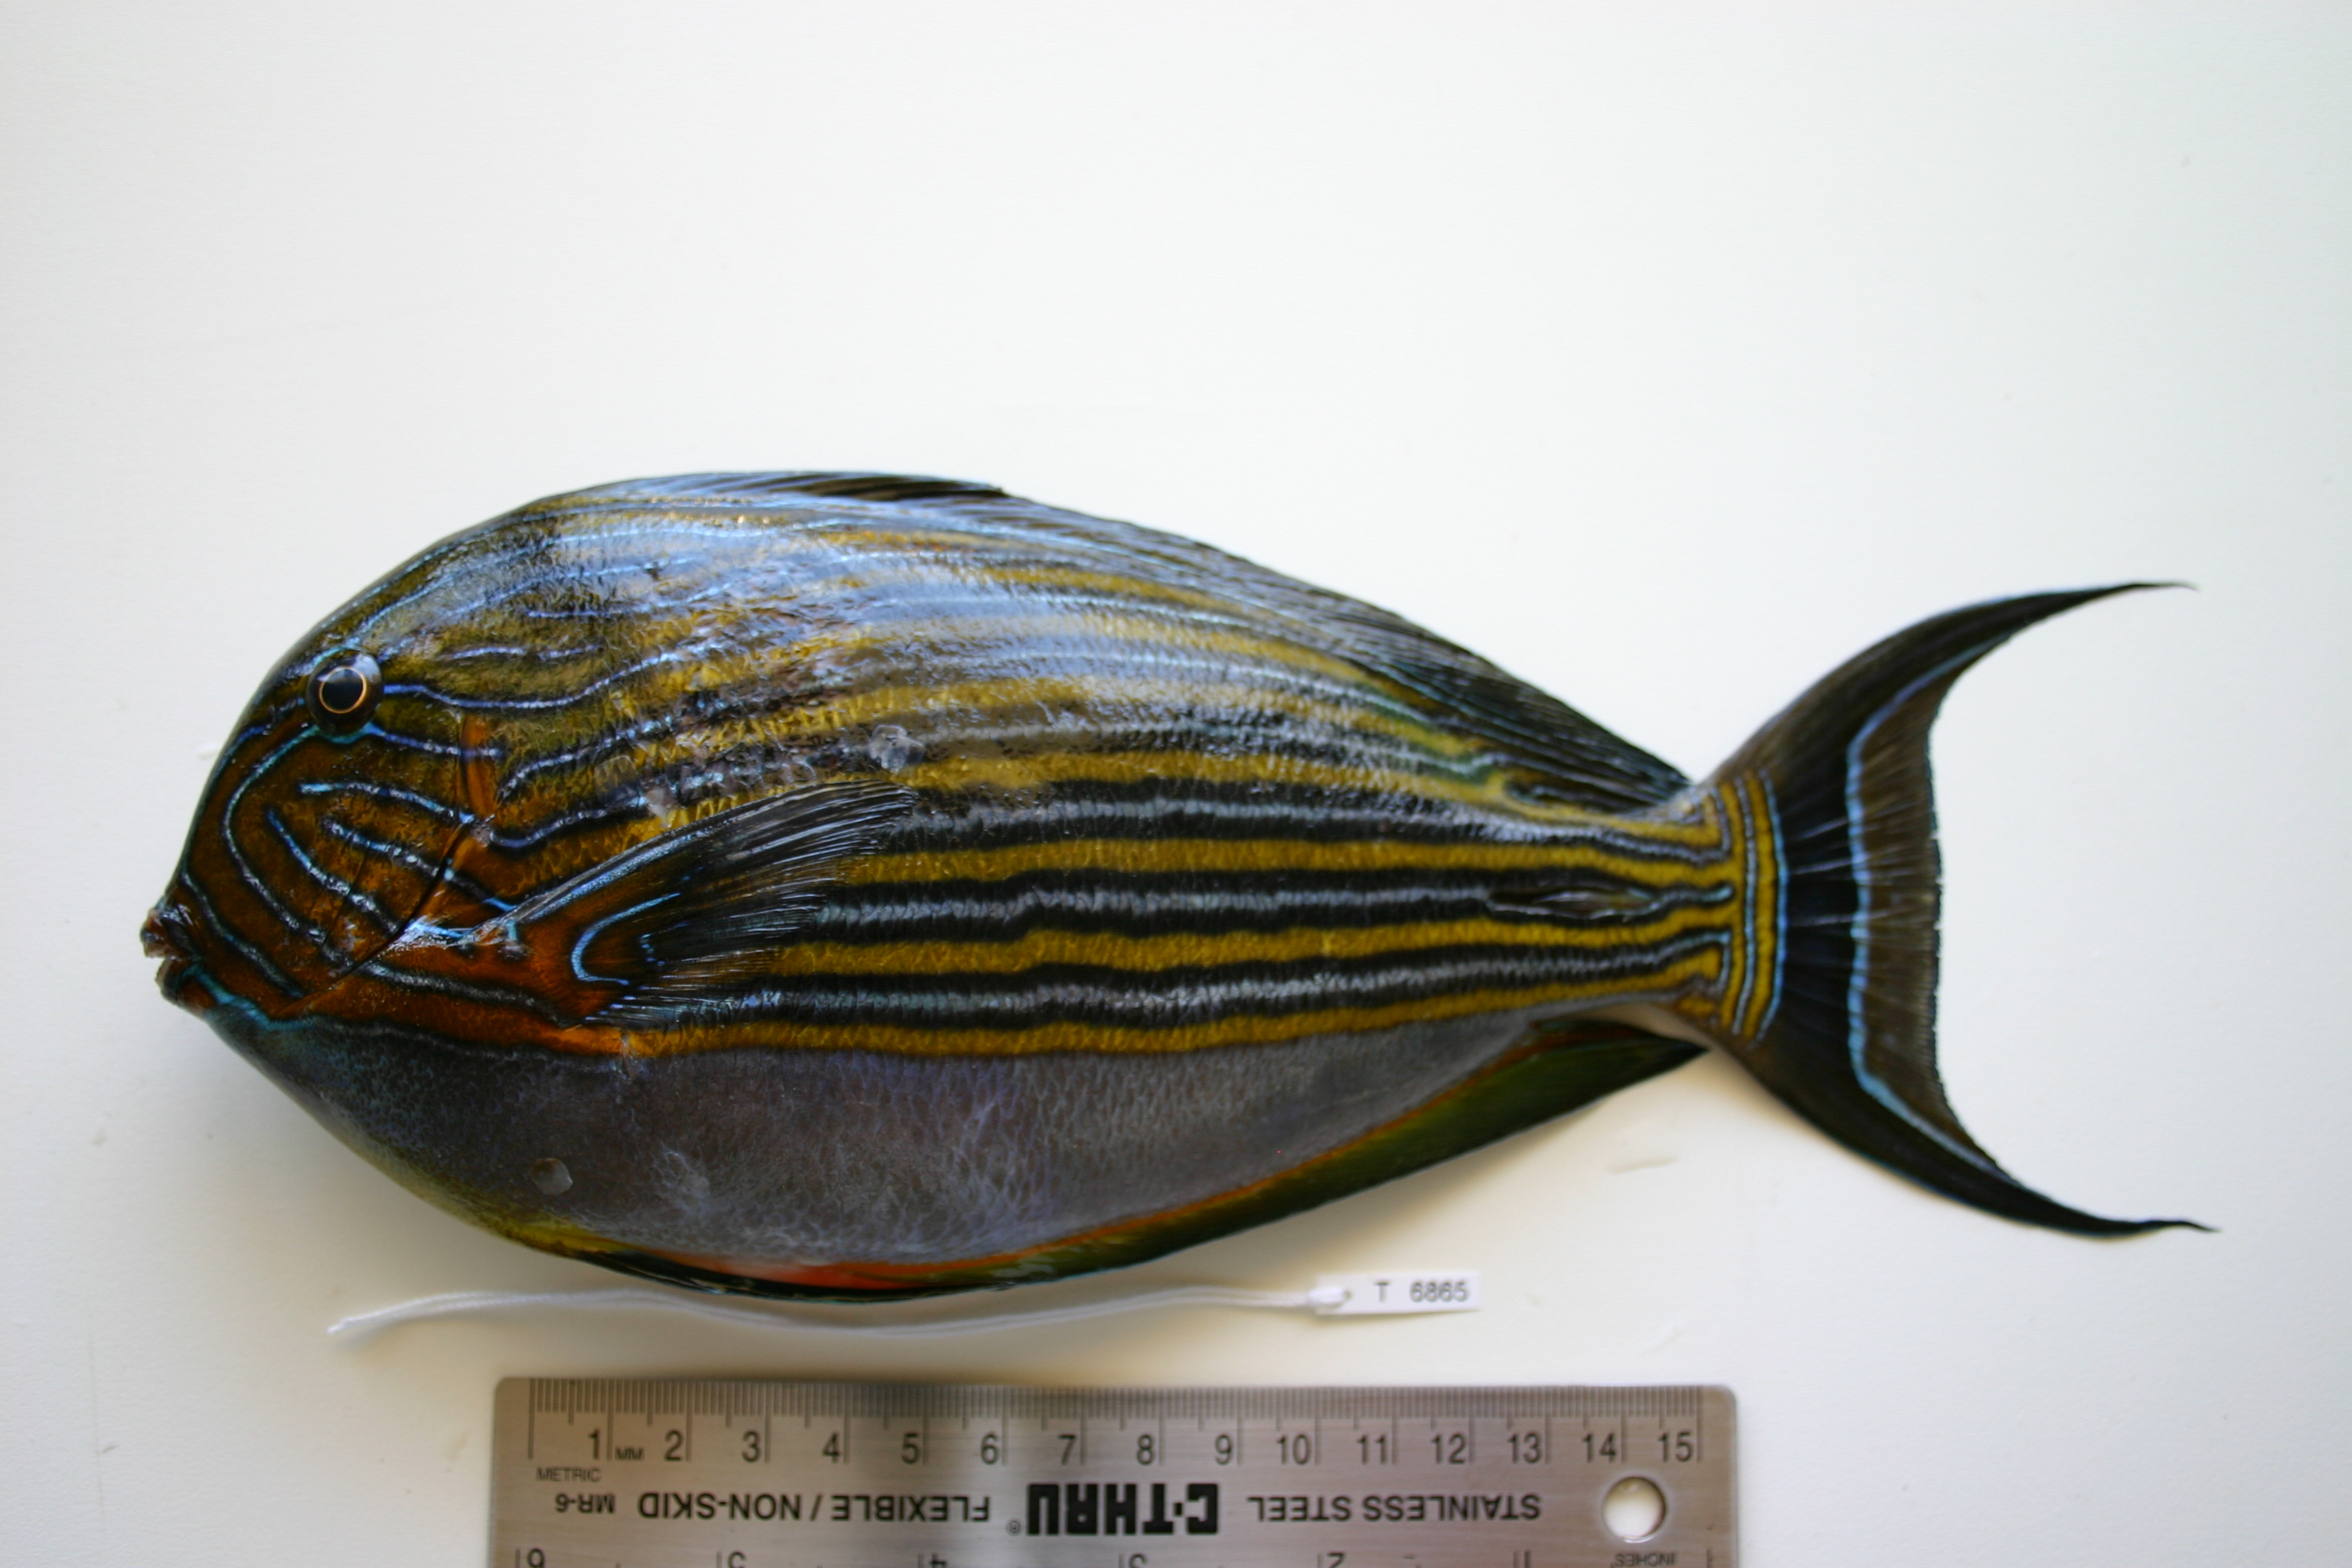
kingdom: Animalia
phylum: Chordata
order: Perciformes
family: Acanthuridae
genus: Acanthurus
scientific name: Acanthurus lineatus
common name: Striped surgeonfish
